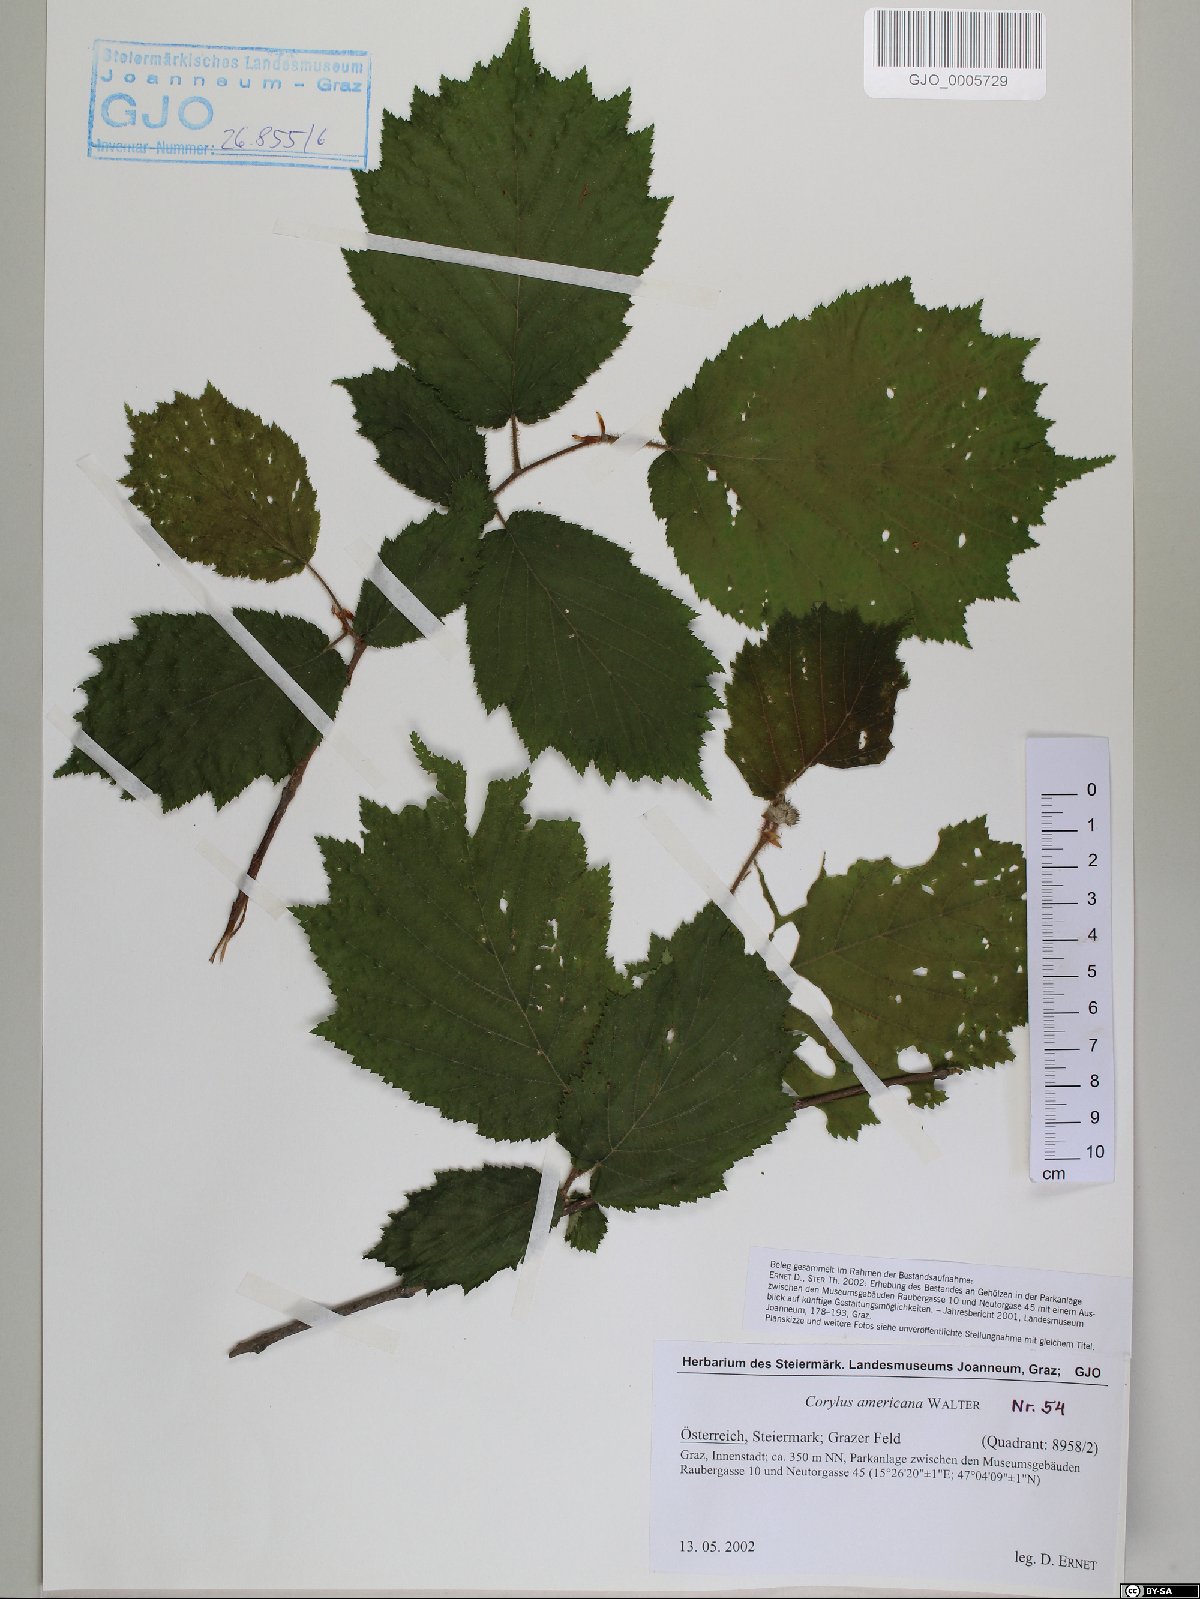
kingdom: Plantae
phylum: Tracheophyta
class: Magnoliopsida
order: Fagales
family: Betulaceae
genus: Corylus
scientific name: Corylus americana
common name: American hazel
